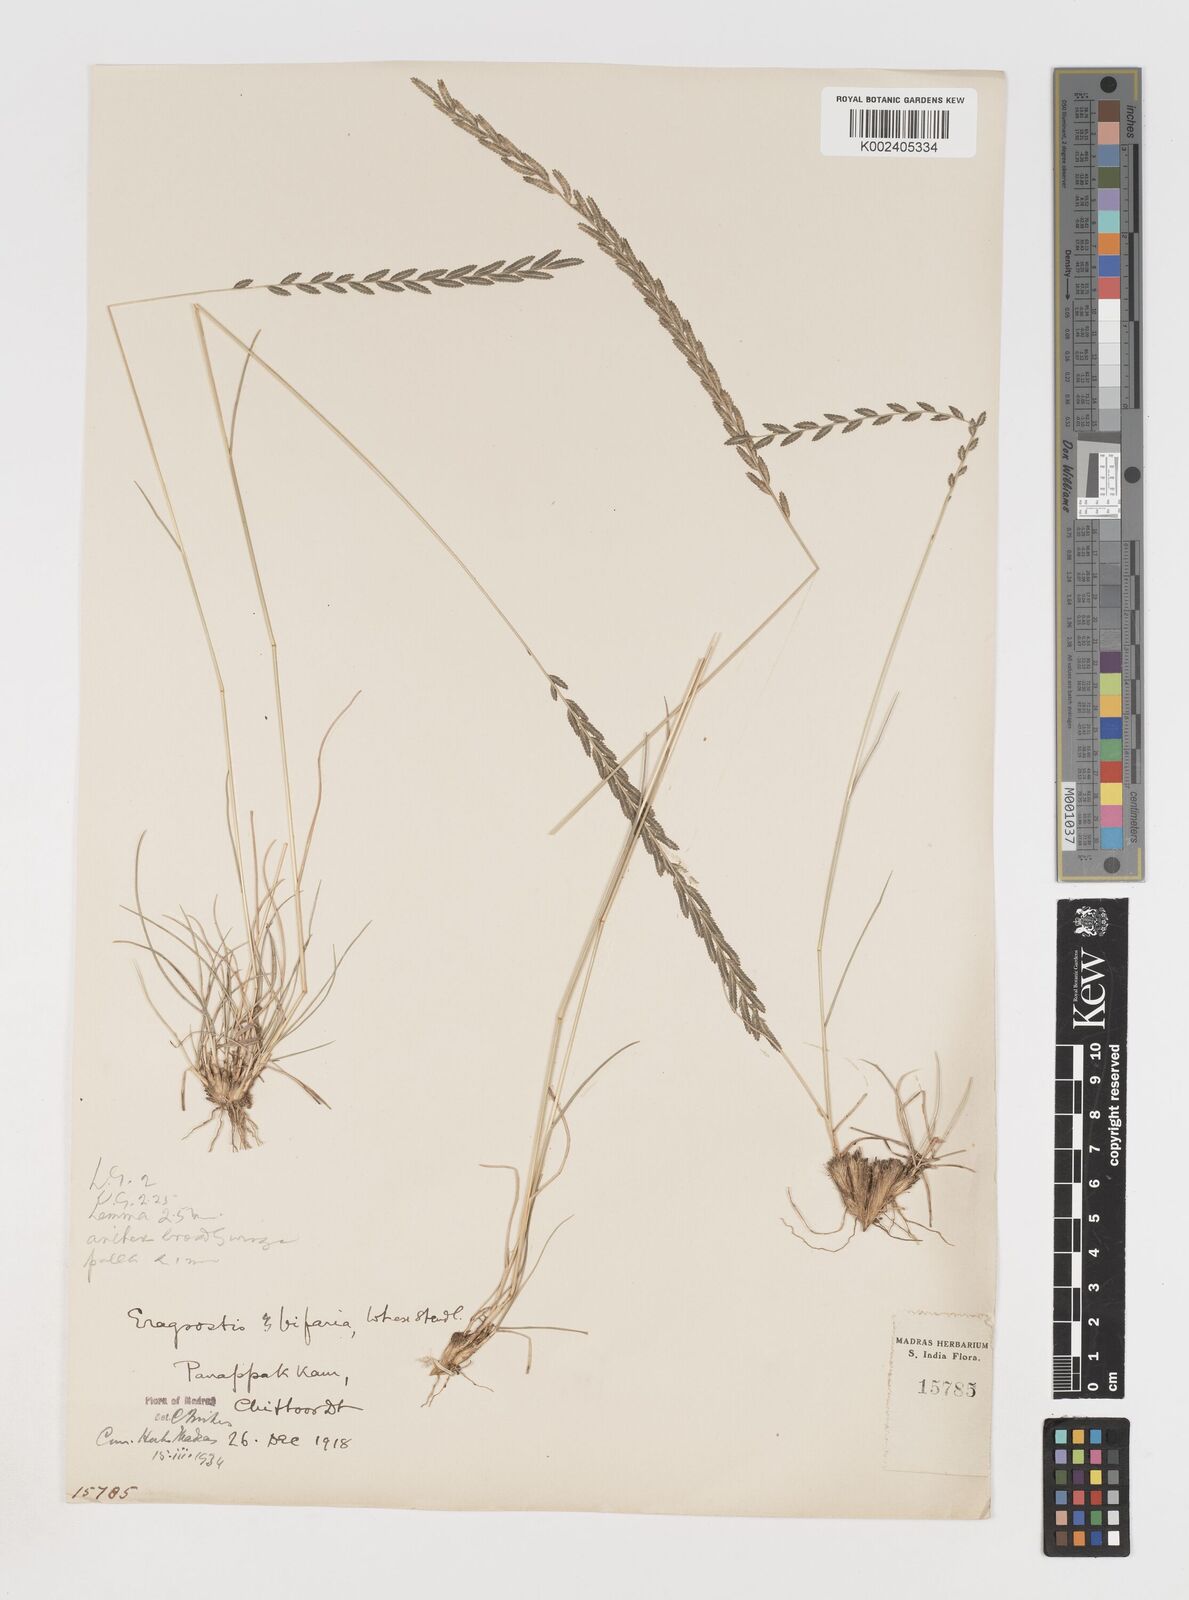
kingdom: Plantae
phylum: Tracheophyta
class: Liliopsida
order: Poales
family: Poaceae
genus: Eragrostiella
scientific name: Eragrostiella bifaria
